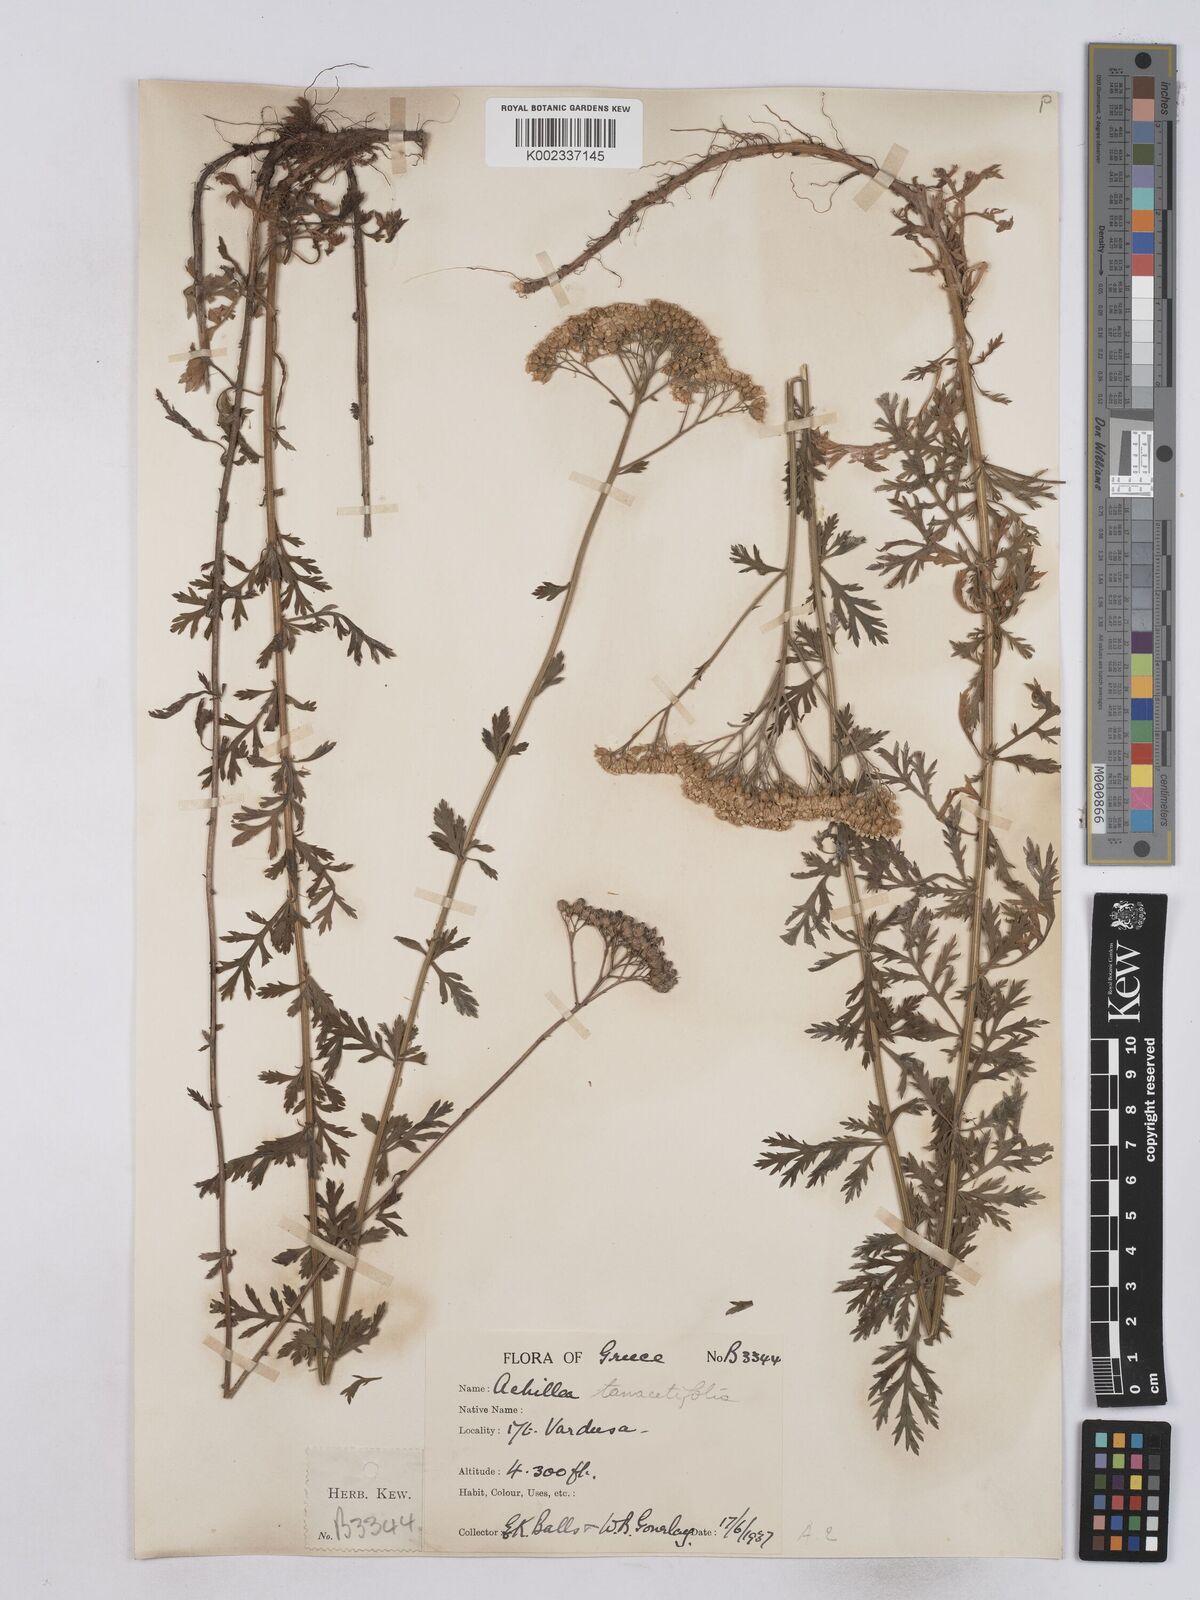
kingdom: Plantae
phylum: Tracheophyta
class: Magnoliopsida
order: Asterales
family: Asteraceae
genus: Achillea
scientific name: Achillea ligustica
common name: Southern yarrow
